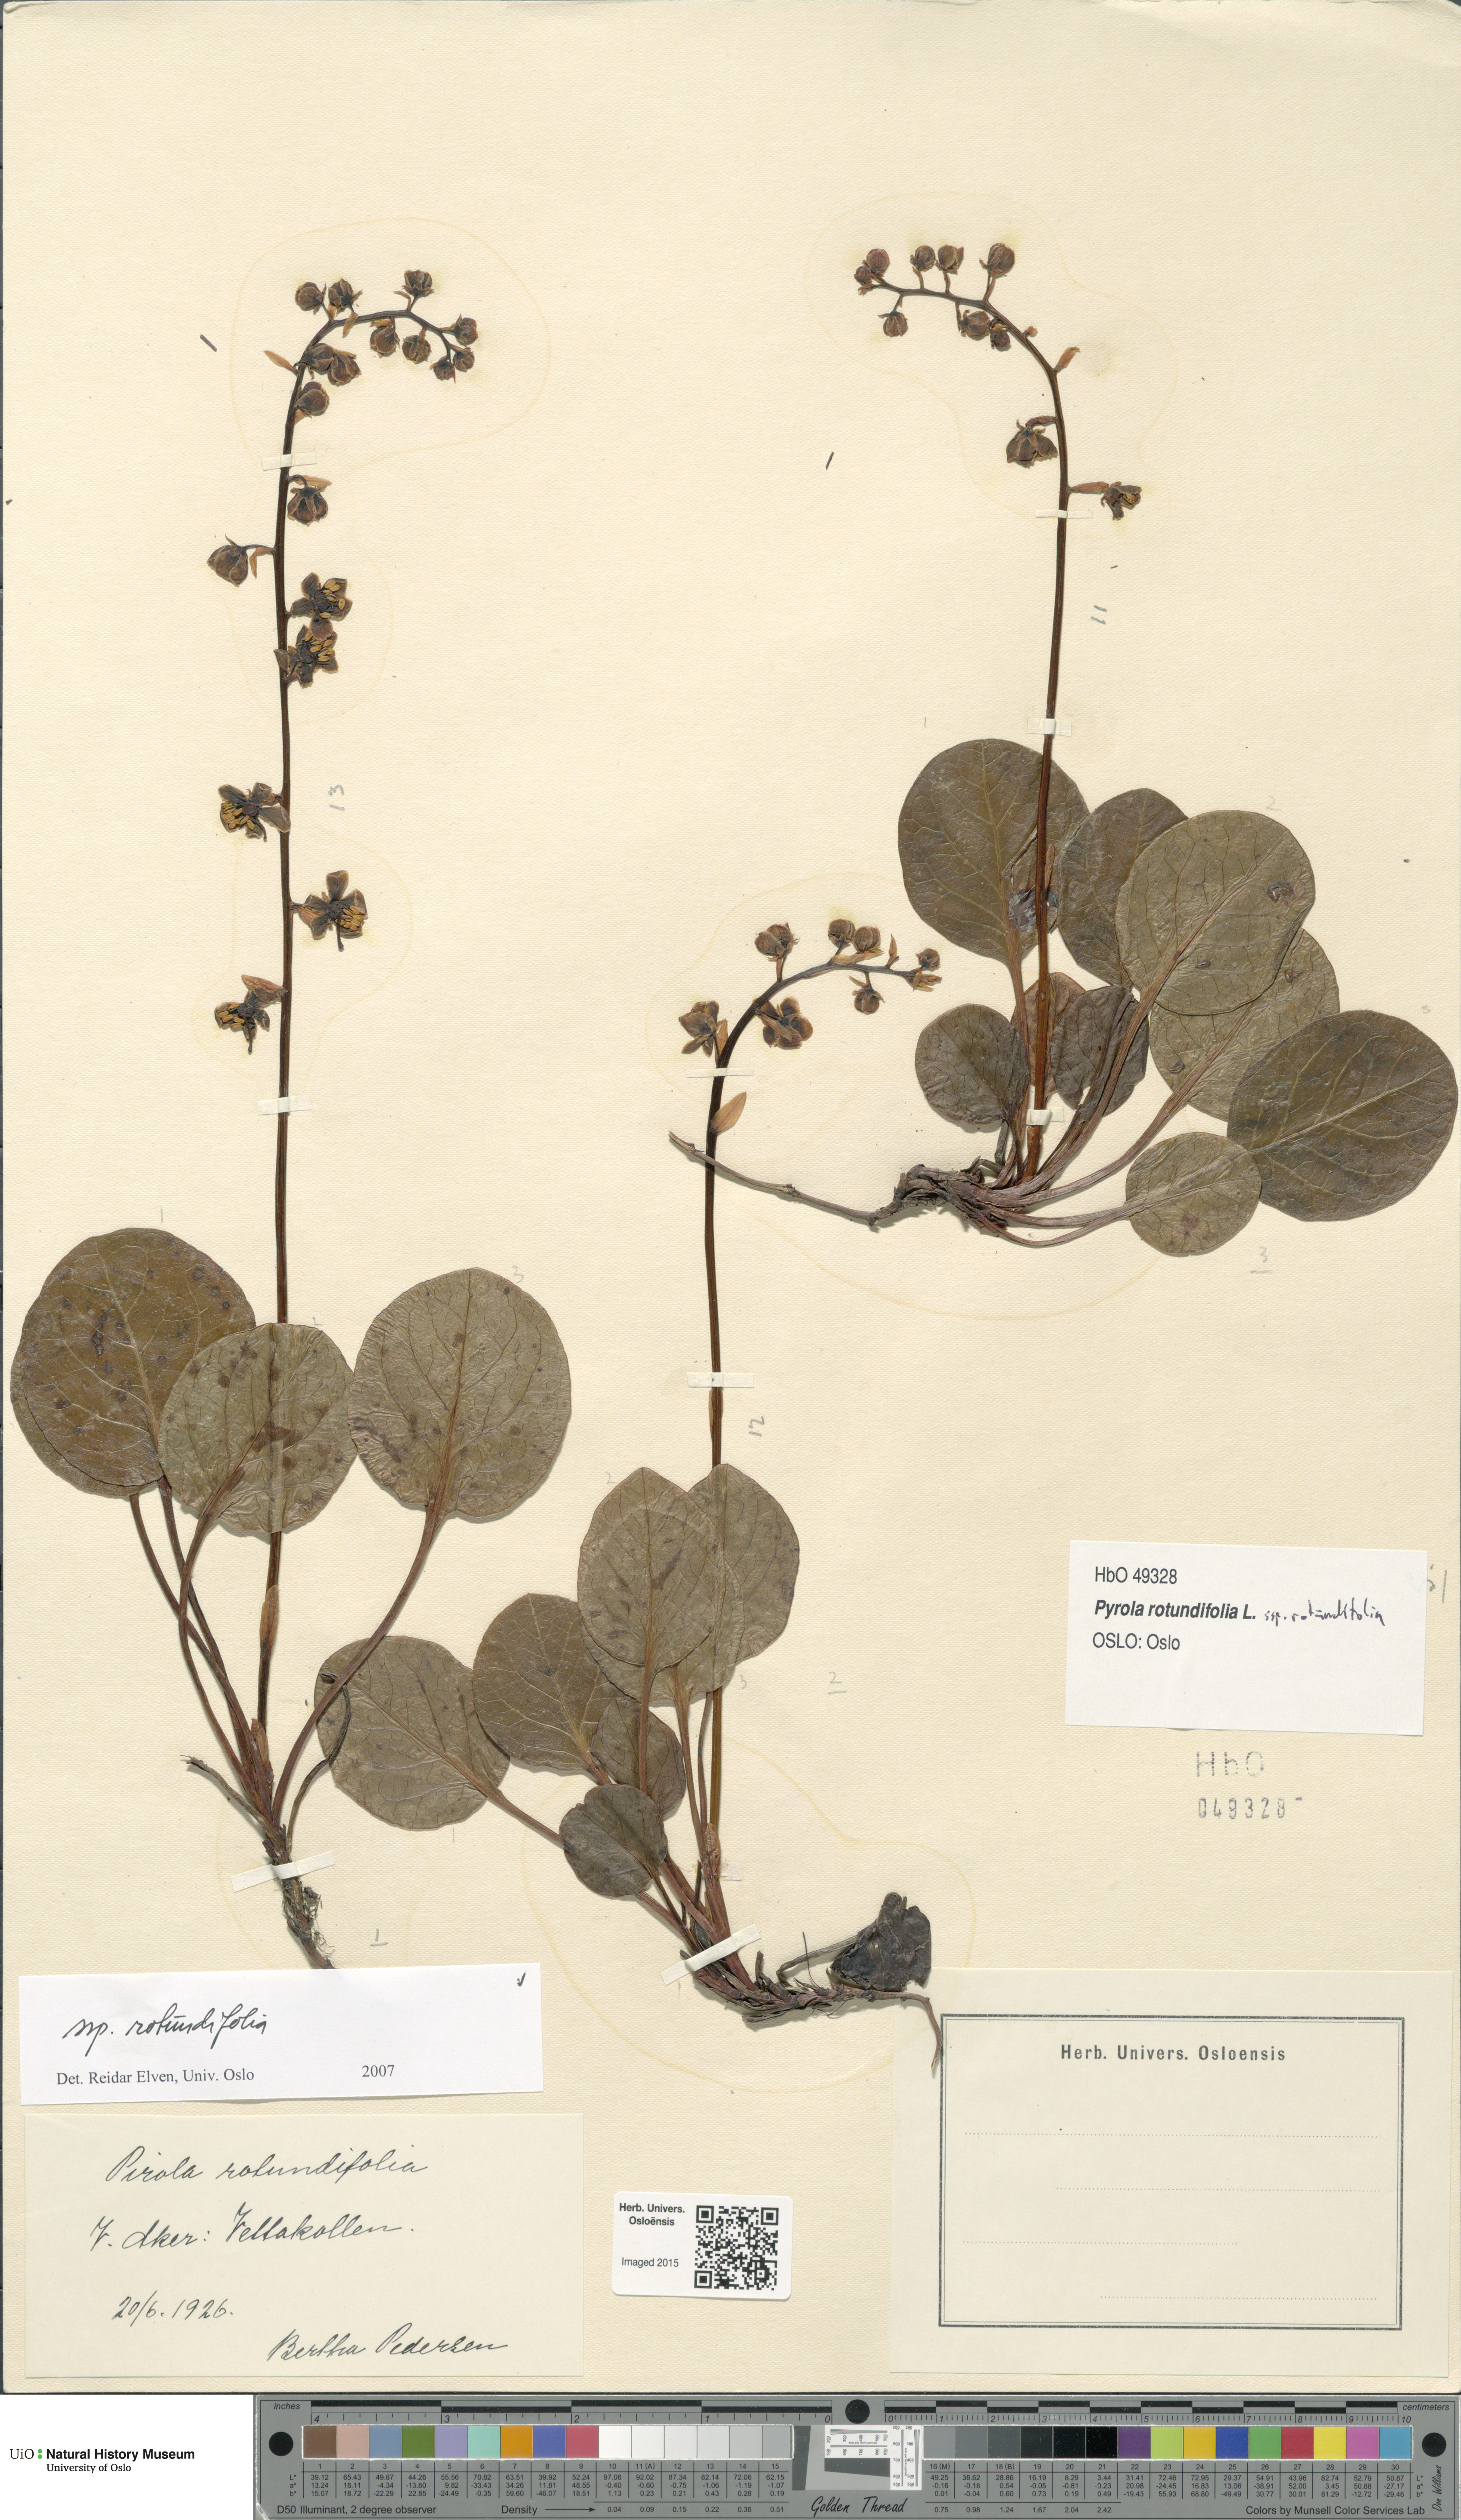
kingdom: Plantae
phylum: Tracheophyta
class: Magnoliopsida
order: Ericales
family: Ericaceae
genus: Pyrola
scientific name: Pyrola rotundifolia
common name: Round-leaved wintergreen
